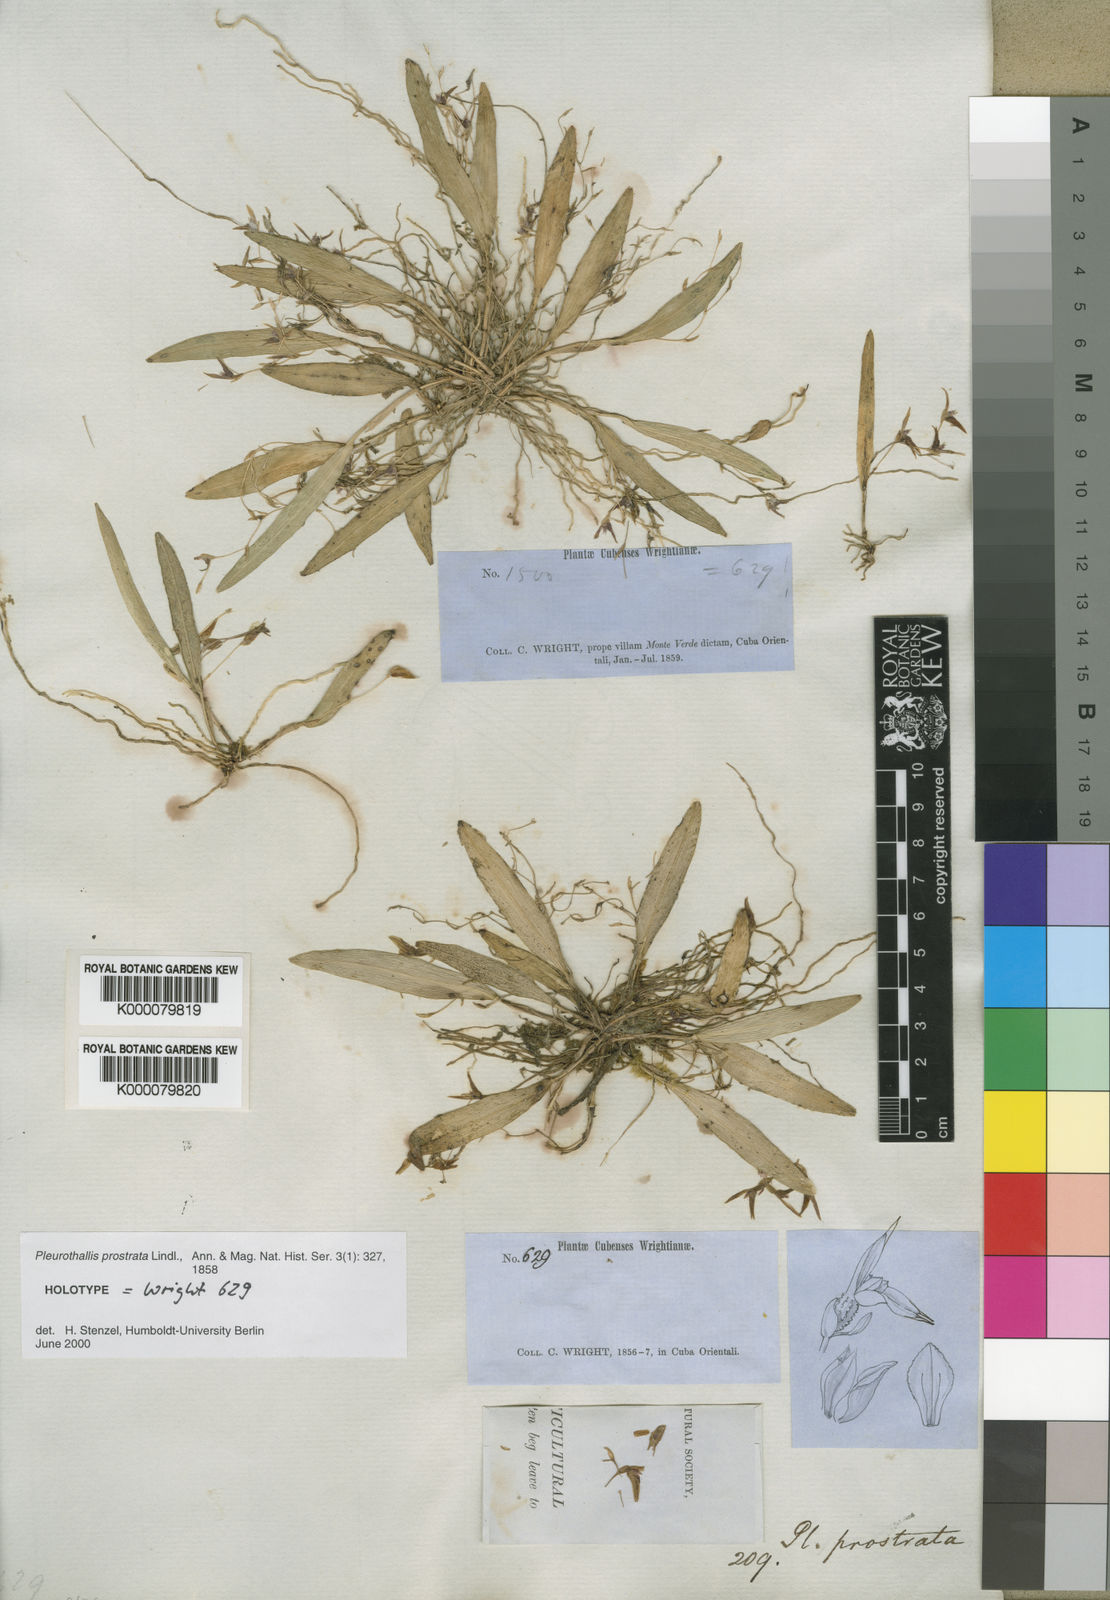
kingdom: Plantae
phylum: Tracheophyta
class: Liliopsida
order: Asparagales
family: Orchidaceae
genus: Acianthera
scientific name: Acianthera prostrata
